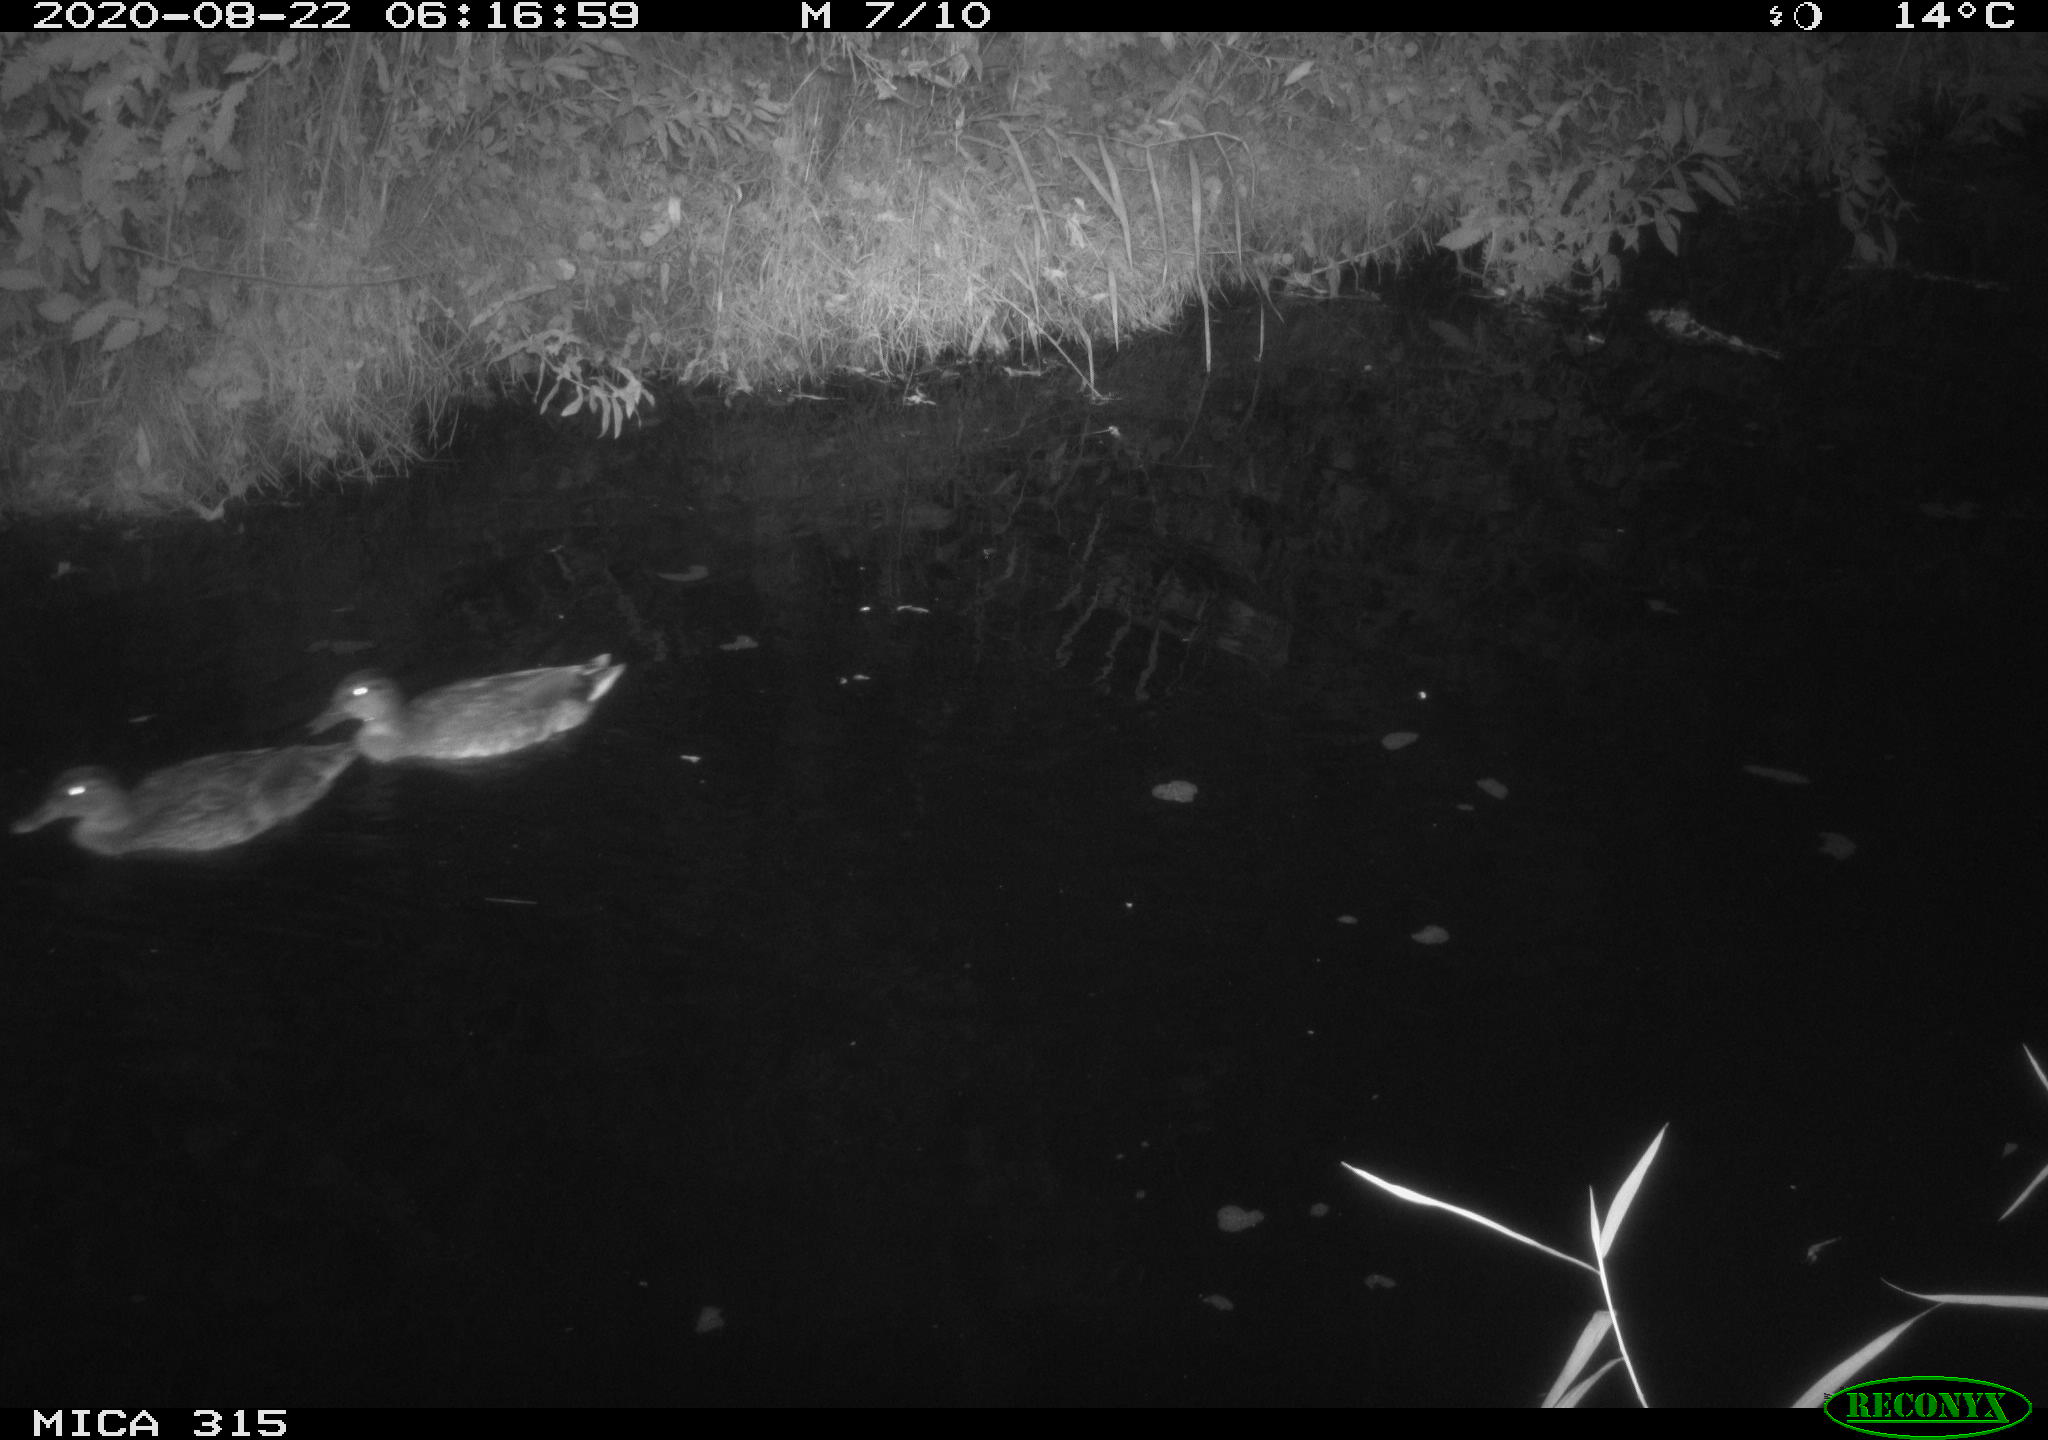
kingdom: Animalia
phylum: Chordata
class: Aves
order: Anseriformes
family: Anatidae
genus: Anas
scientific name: Anas platyrhynchos
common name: Mallard
